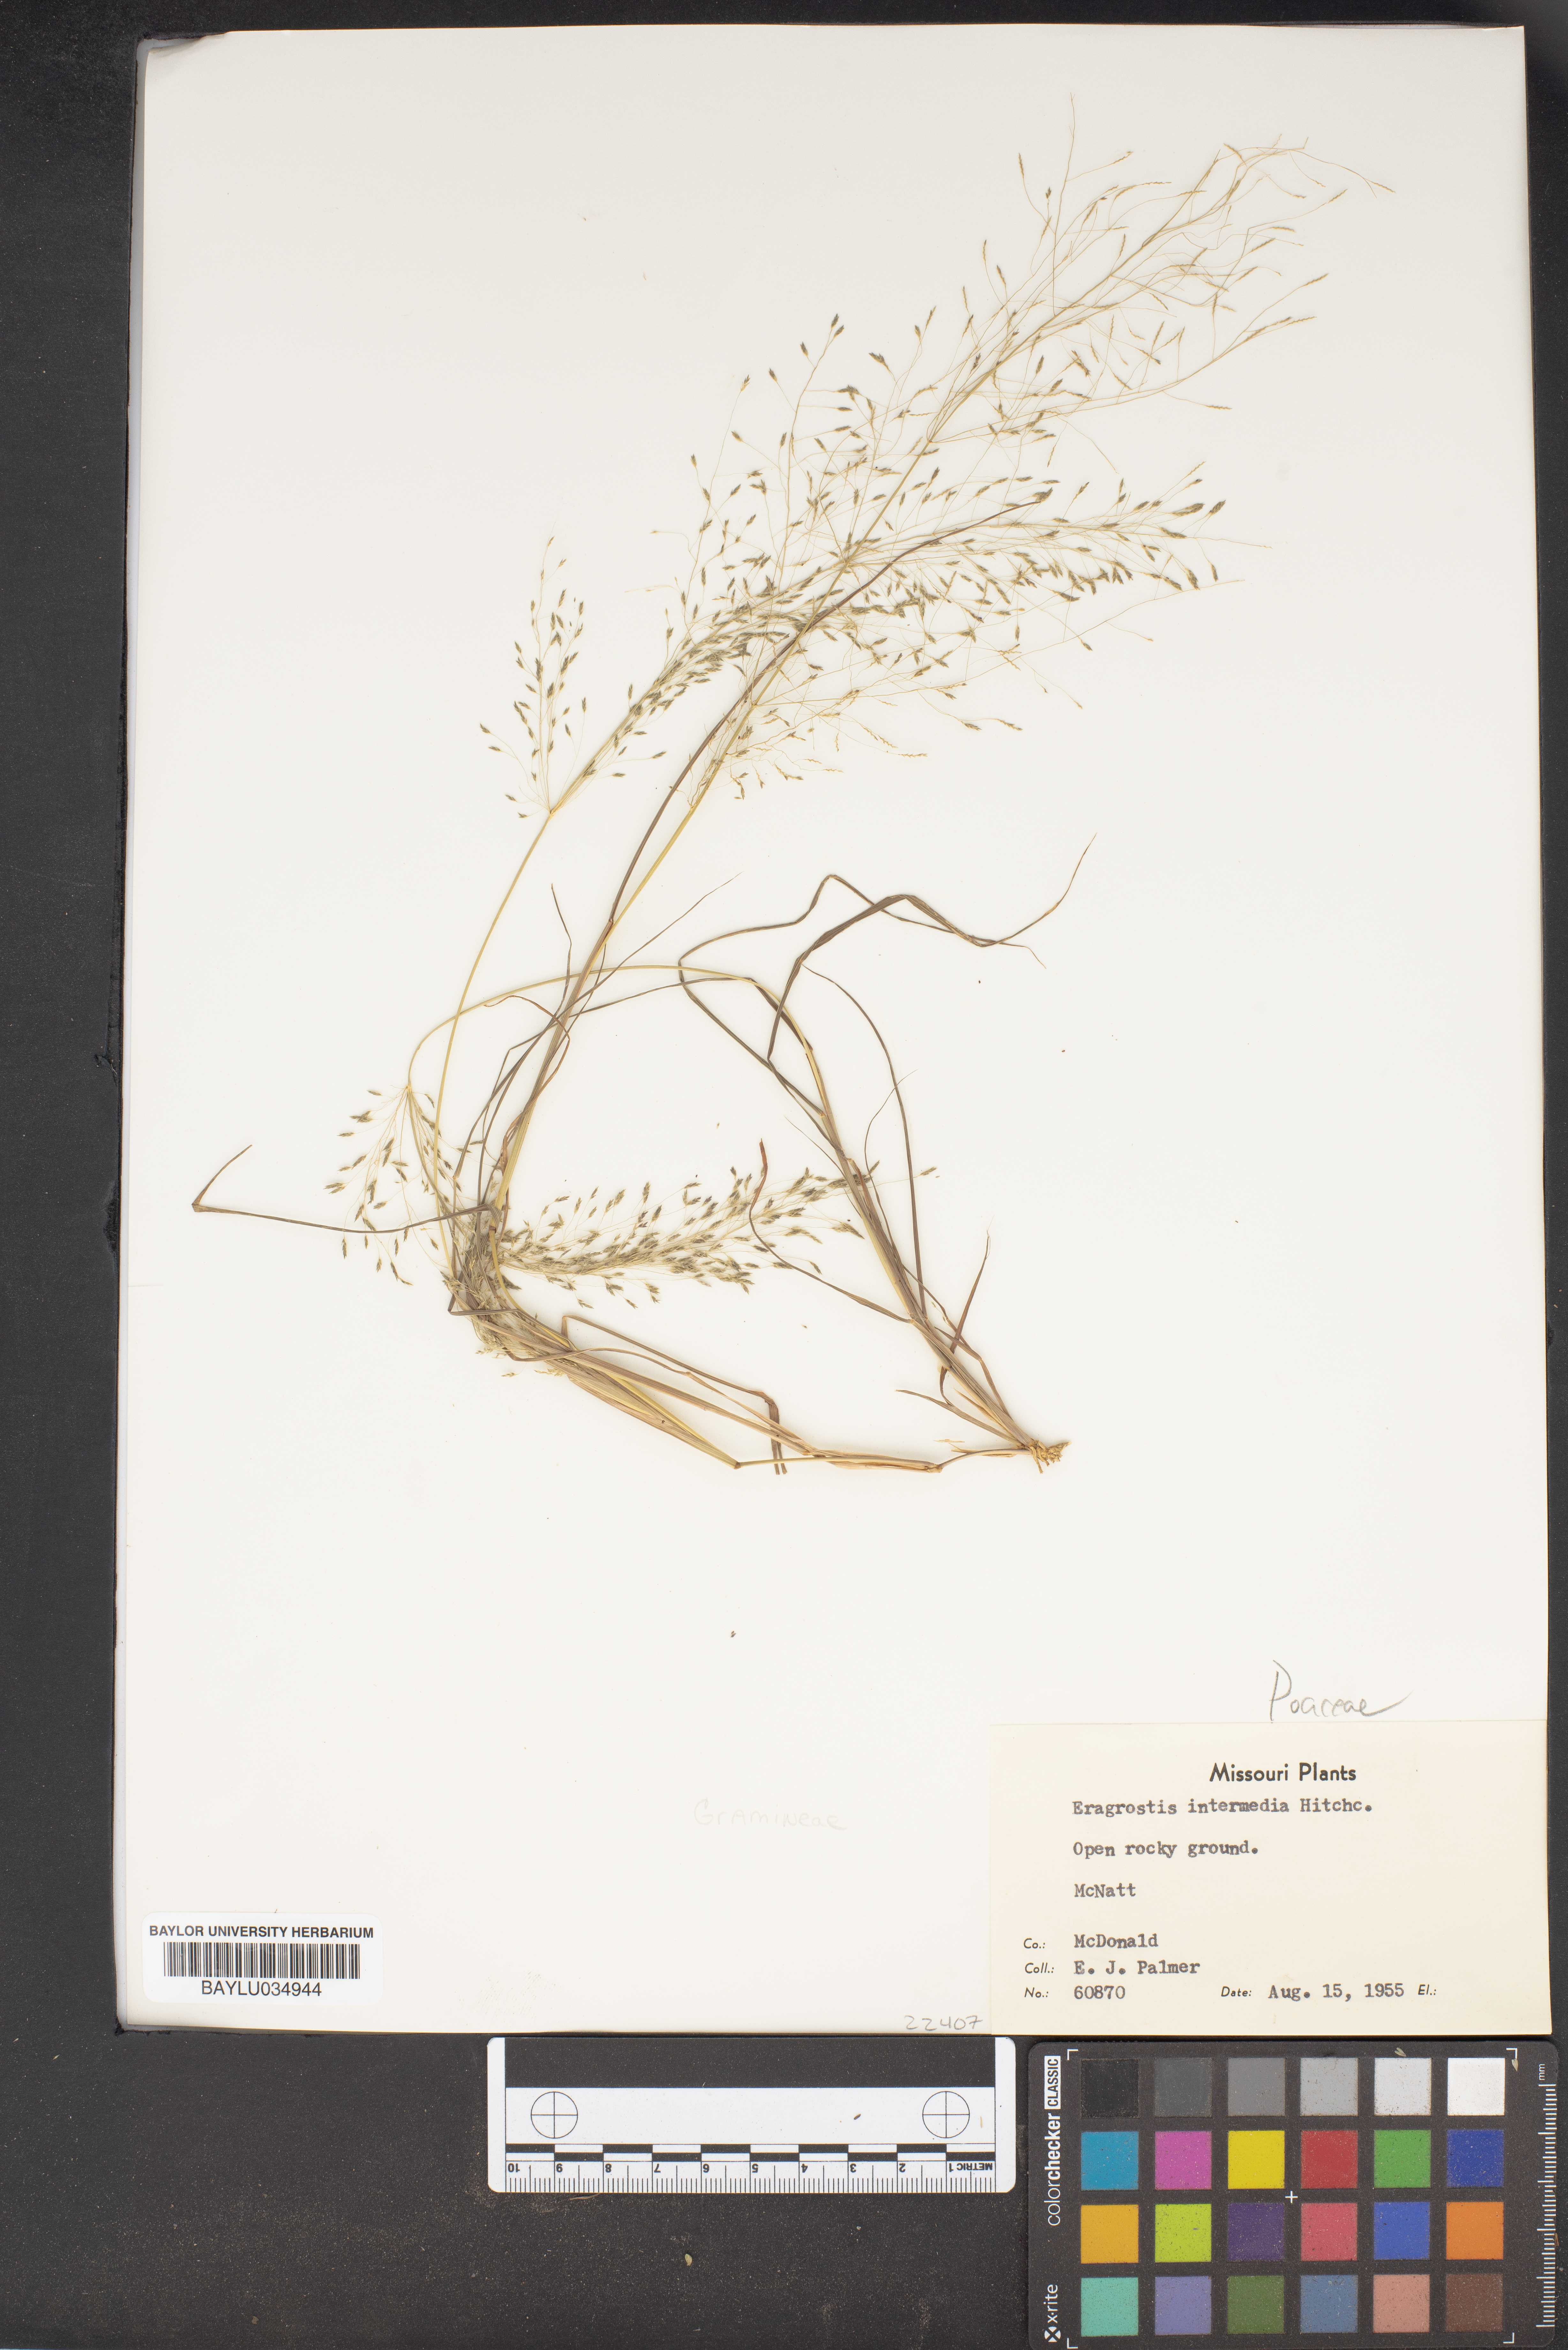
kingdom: Plantae
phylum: Tracheophyta
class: Liliopsida
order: Poales
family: Poaceae
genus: Eragrostis
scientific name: Eragrostis intermedia
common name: Plains love grass
